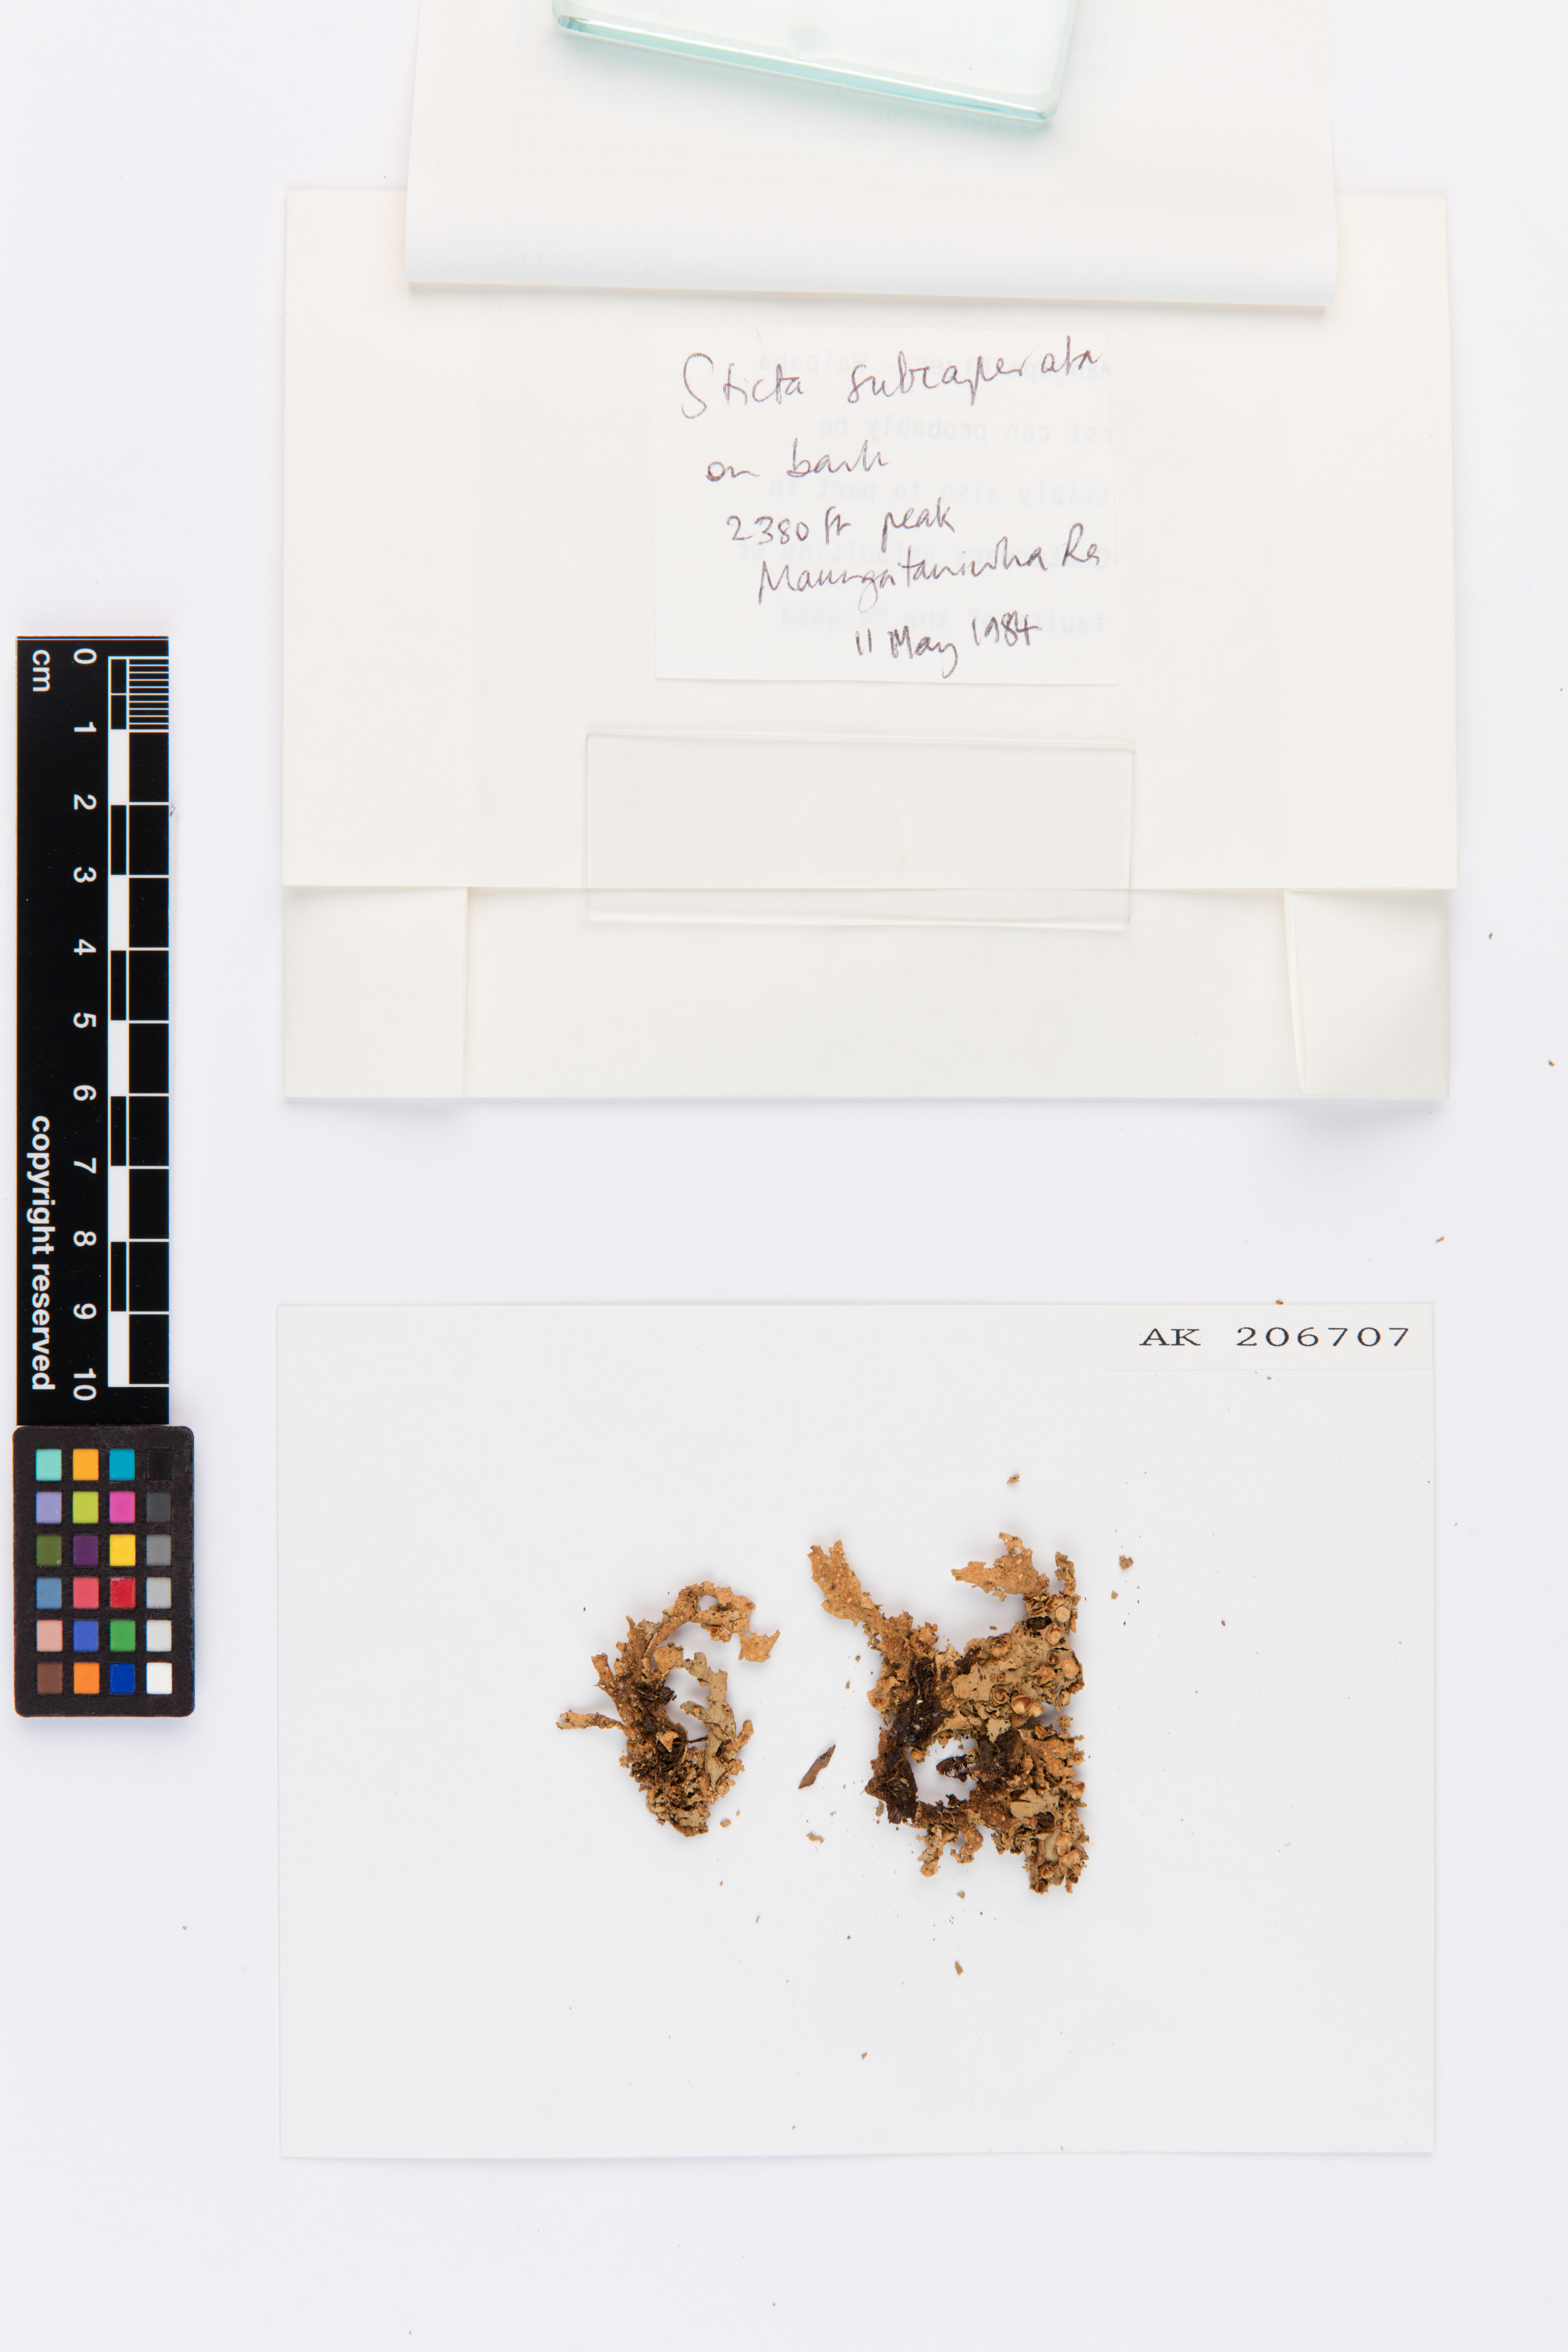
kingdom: Fungi
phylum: Ascomycota
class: Lecanoromycetes
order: Peltigerales
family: Lobariaceae
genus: Sticta
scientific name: Sticta subcaperata
